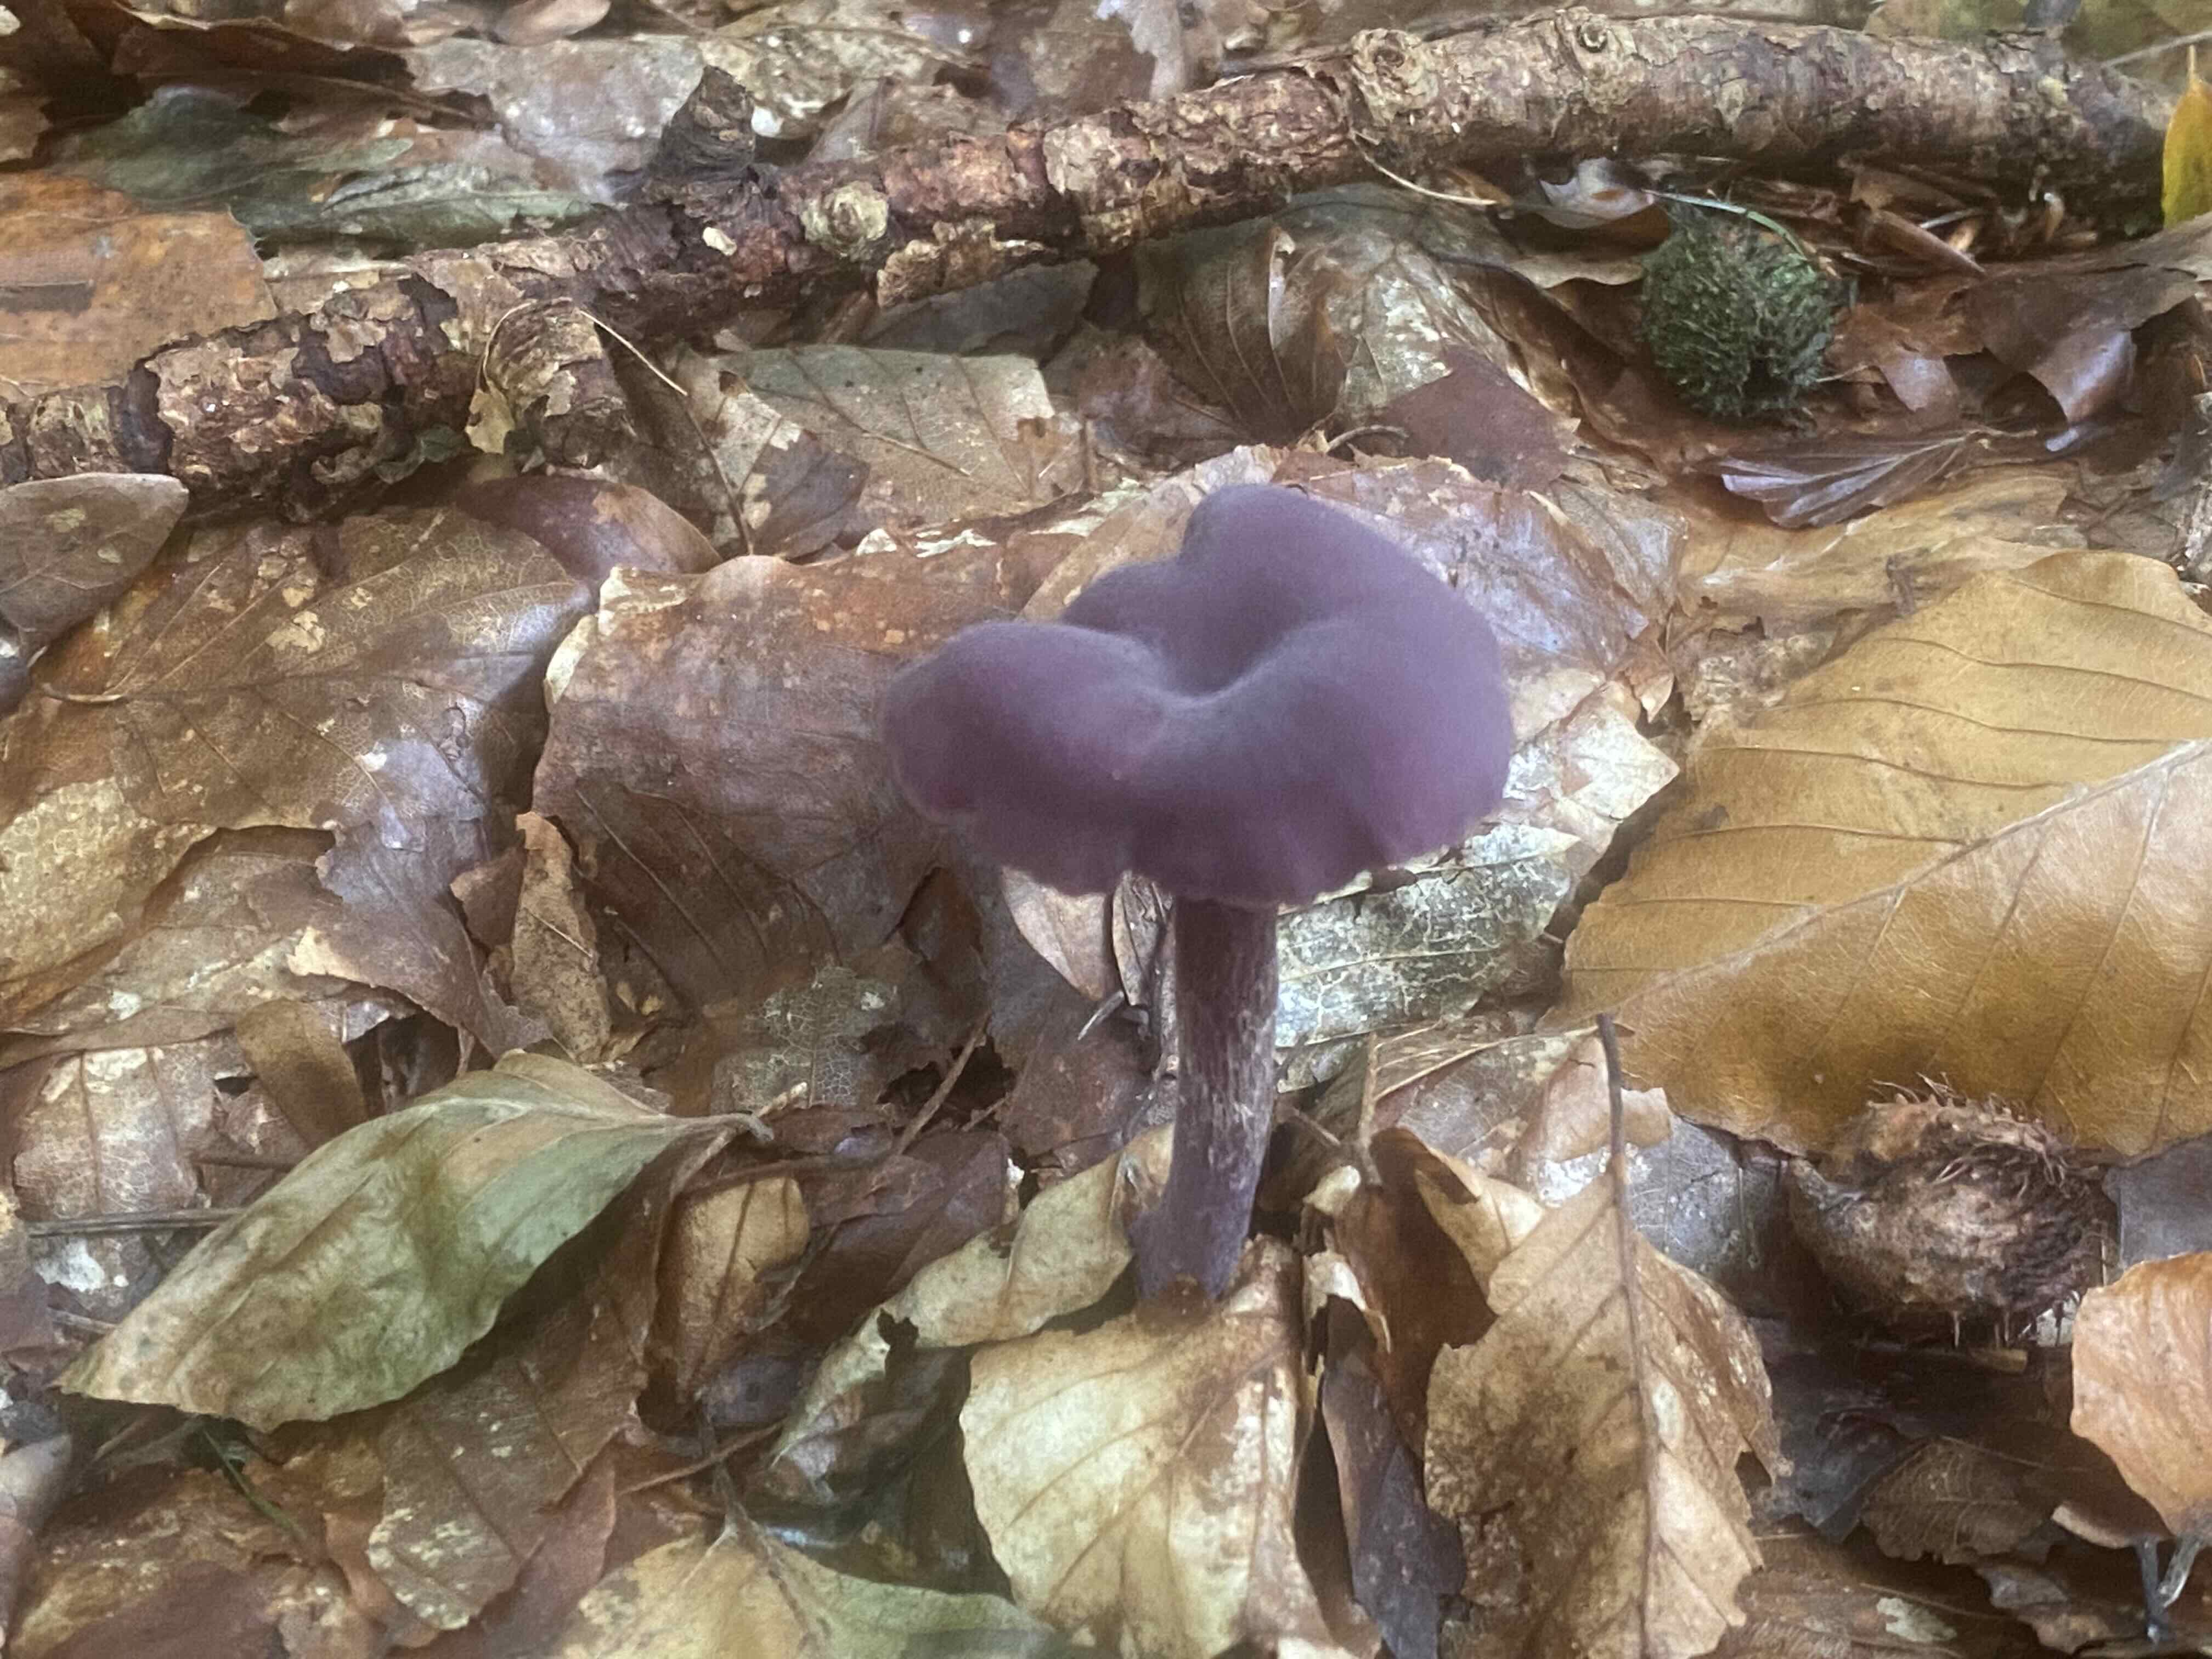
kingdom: Fungi
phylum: Basidiomycota
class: Agaricomycetes
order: Agaricales
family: Hydnangiaceae
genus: Laccaria
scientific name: Laccaria amethystina
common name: violet ametysthat
